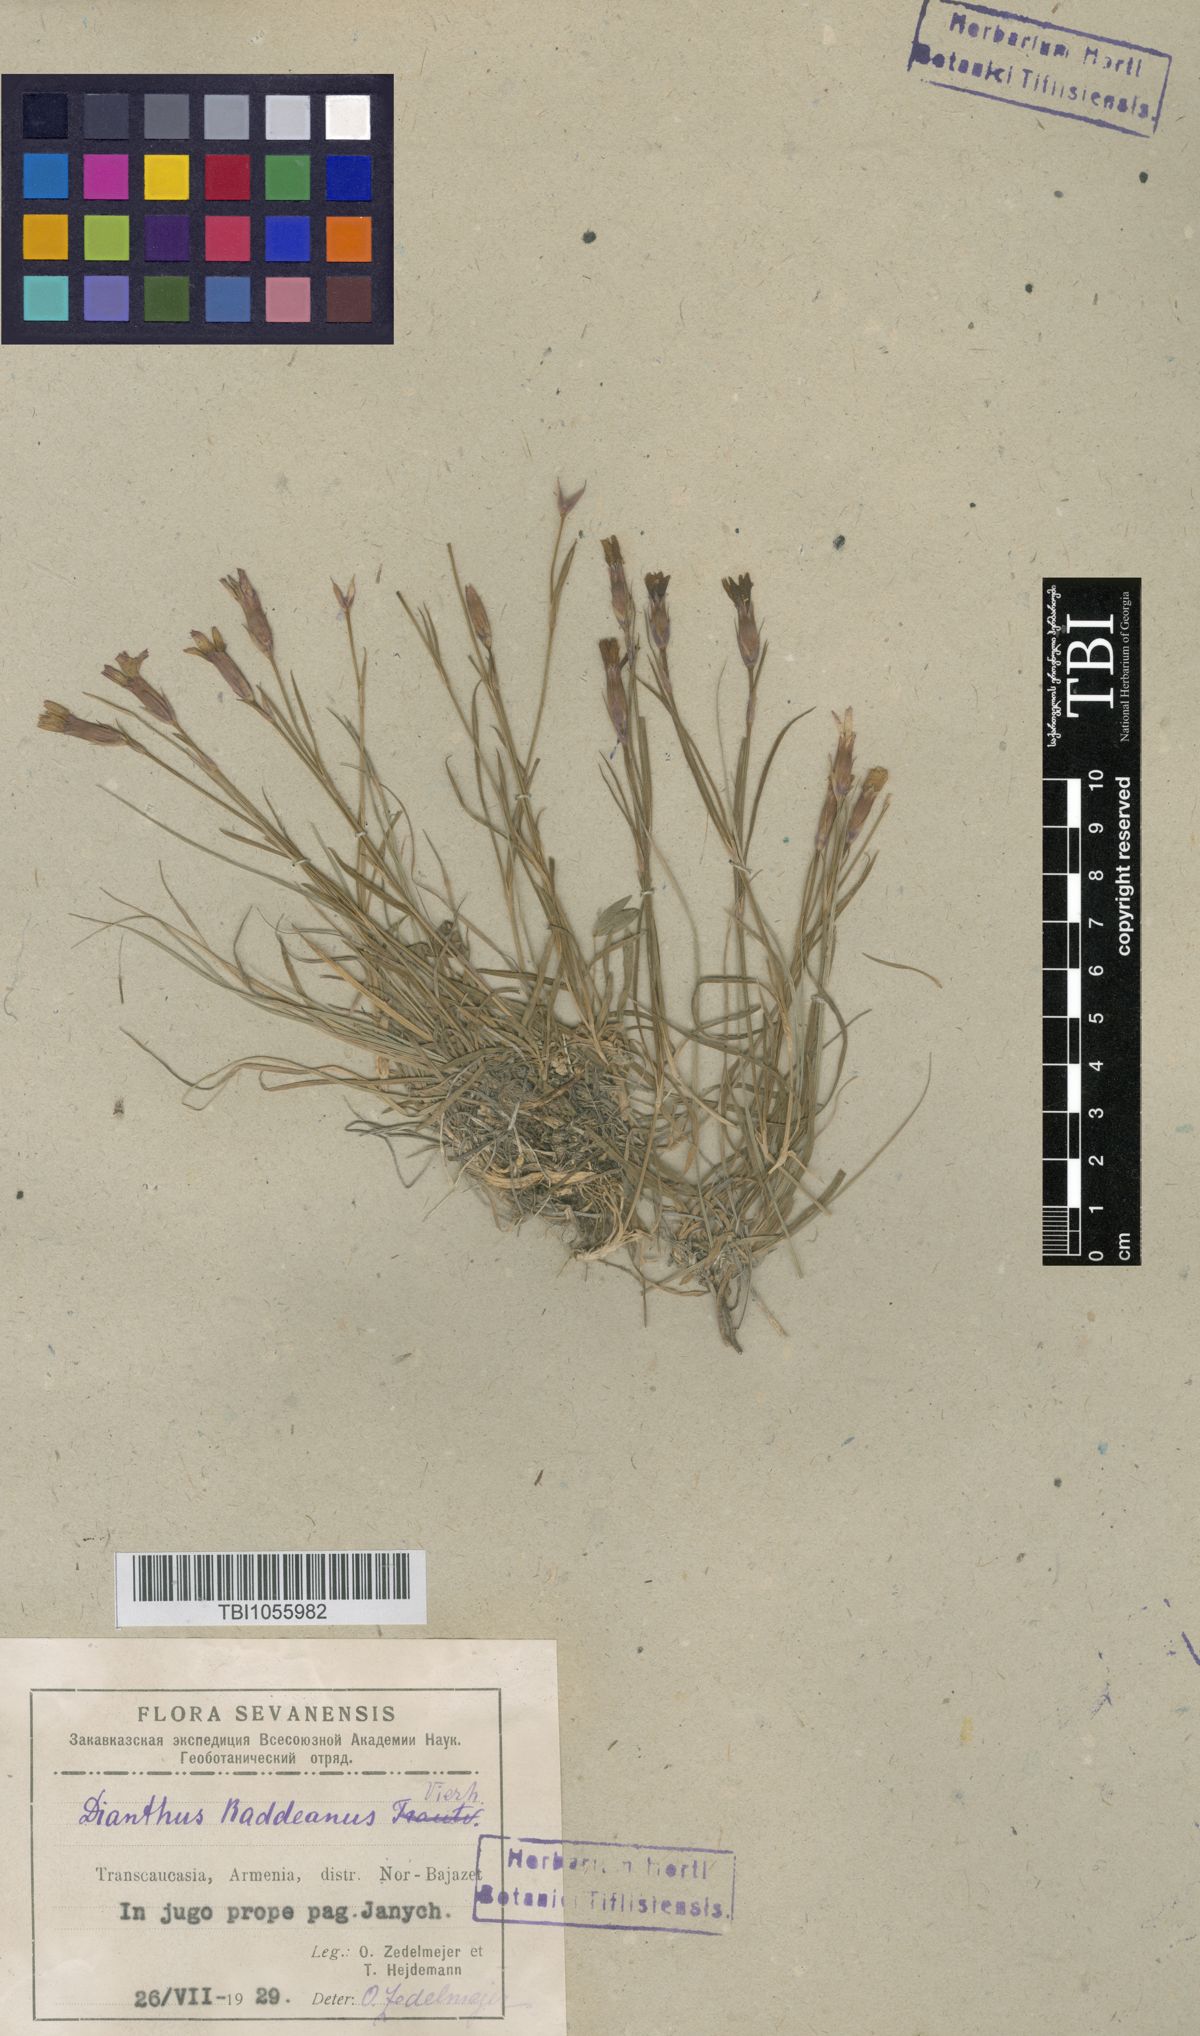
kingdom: Plantae
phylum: Tracheophyta
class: Magnoliopsida
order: Caryophyllales
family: Caryophyllaceae
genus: Dianthus
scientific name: Dianthus raddeanus
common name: Radde's pink
